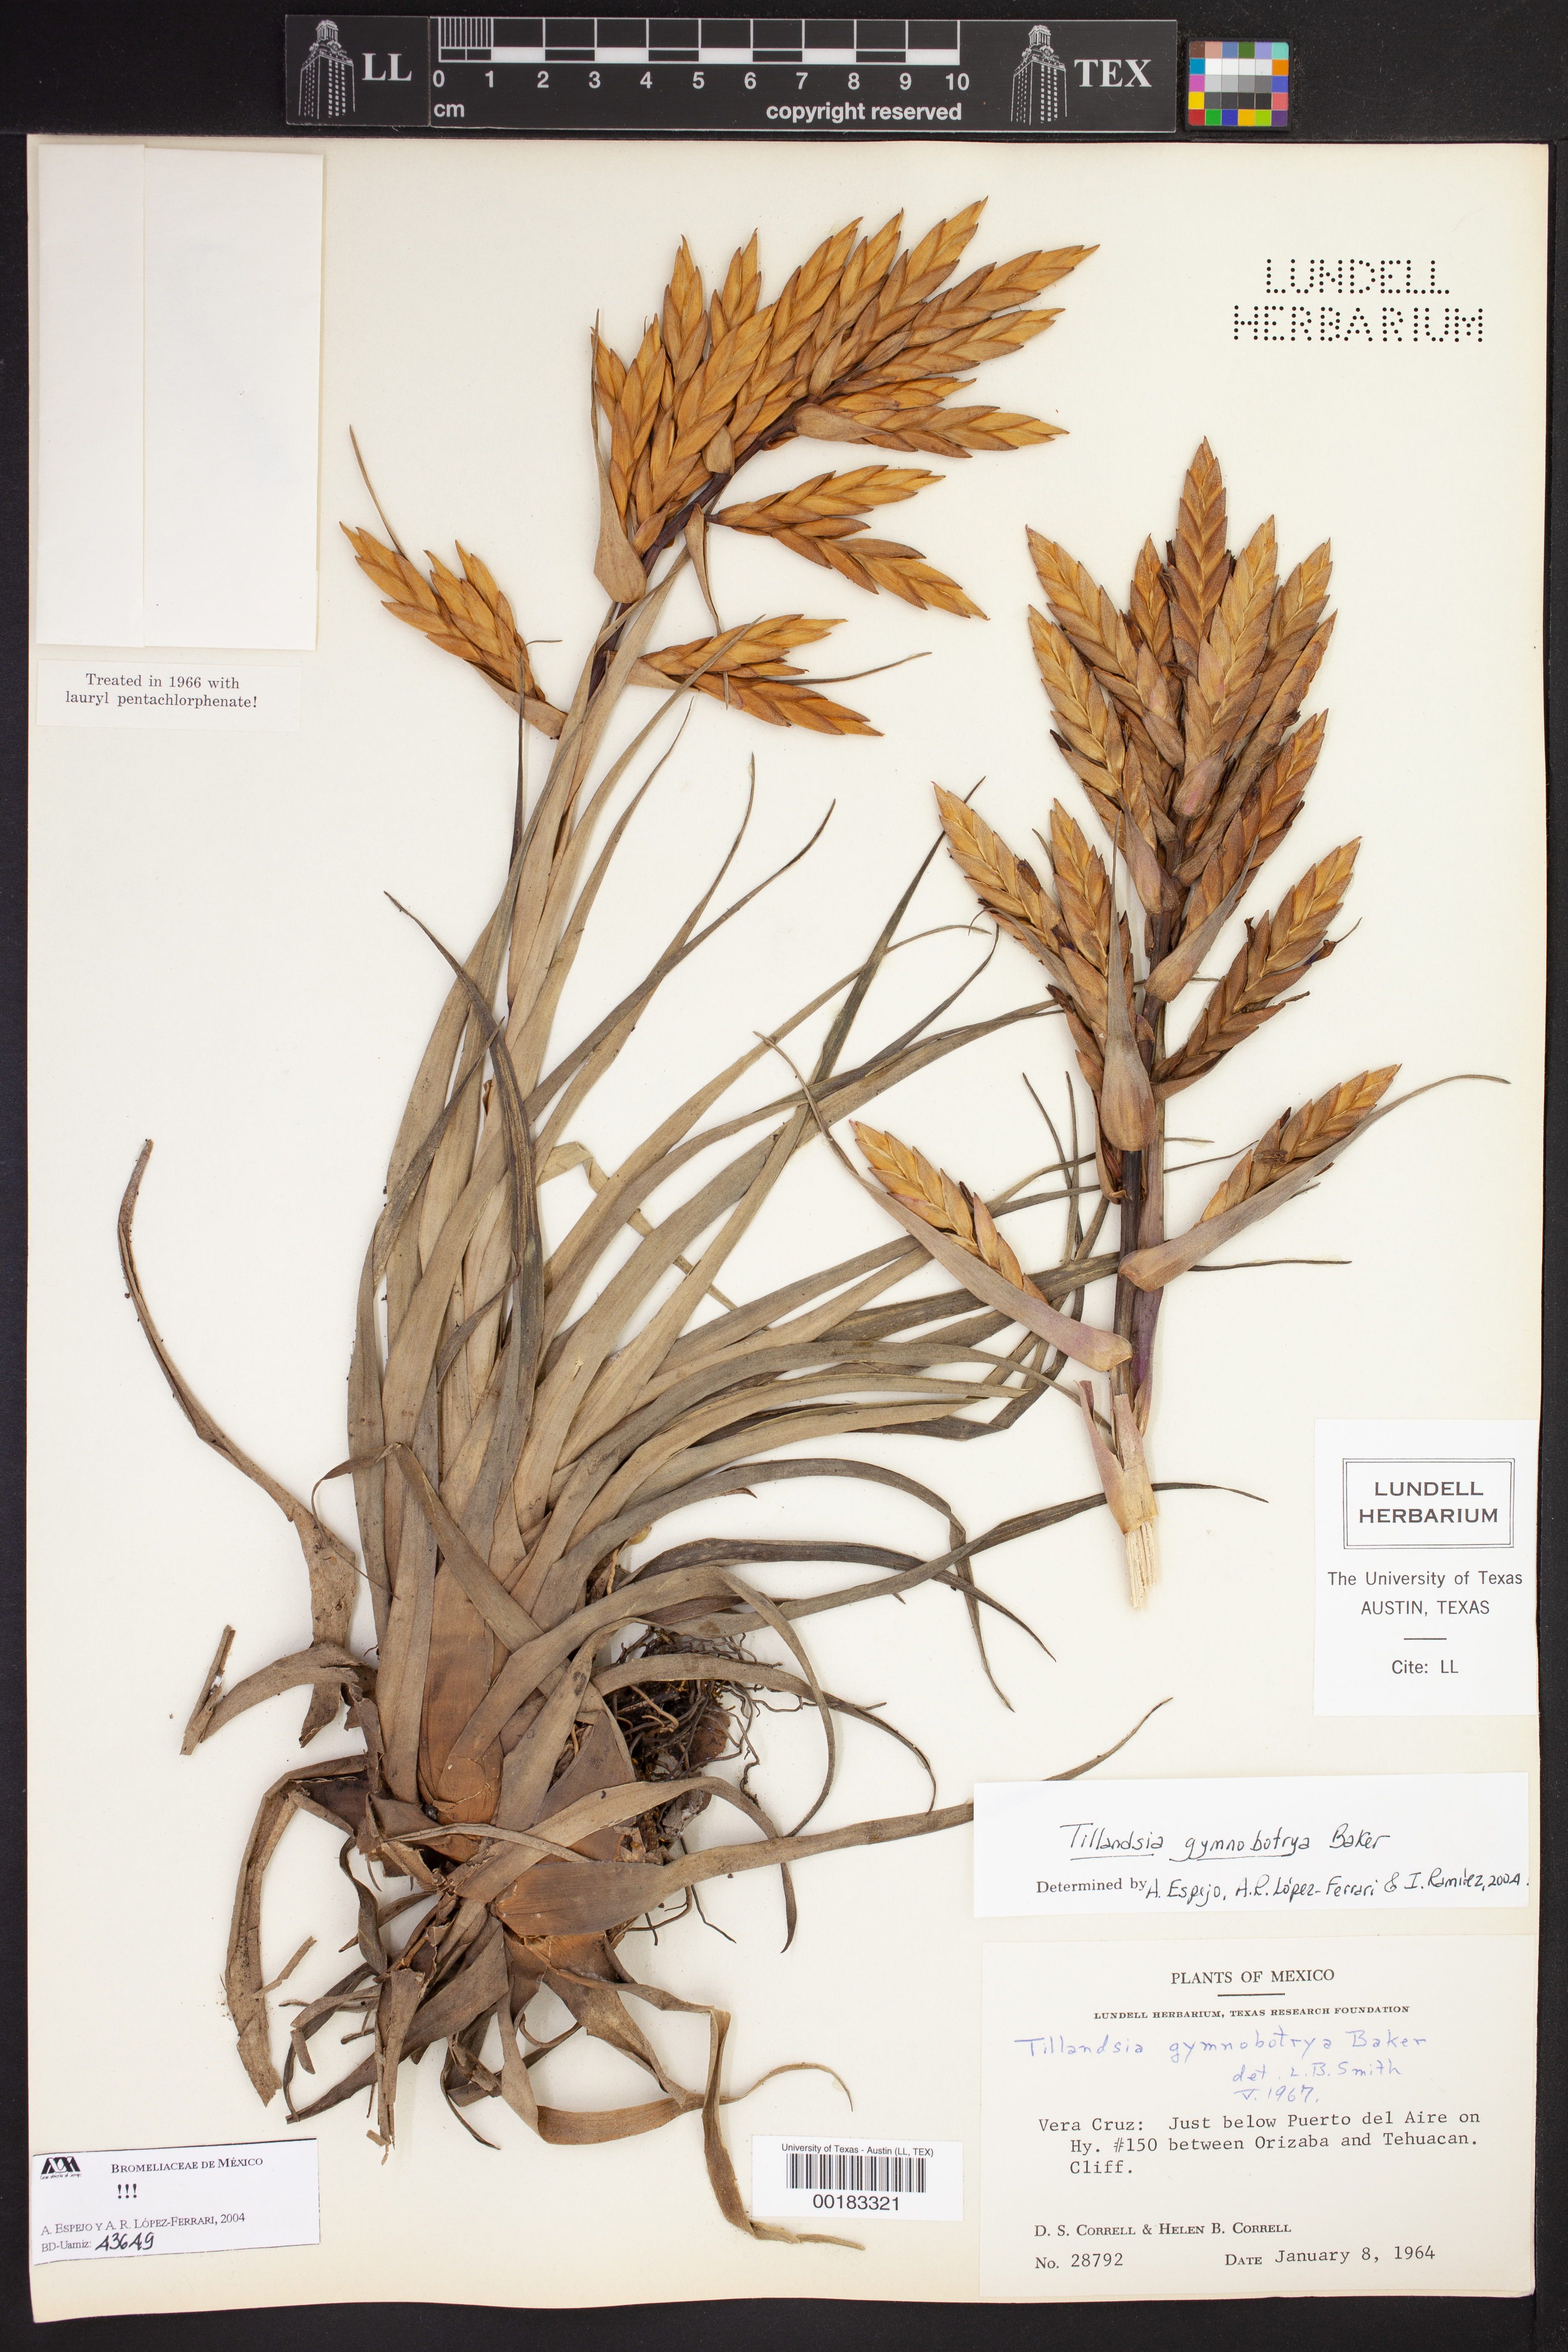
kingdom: Plantae
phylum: Tracheophyta
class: Liliopsida
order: Poales
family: Bromeliaceae
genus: Tillandsia
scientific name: Tillandsia gymnobotrya
